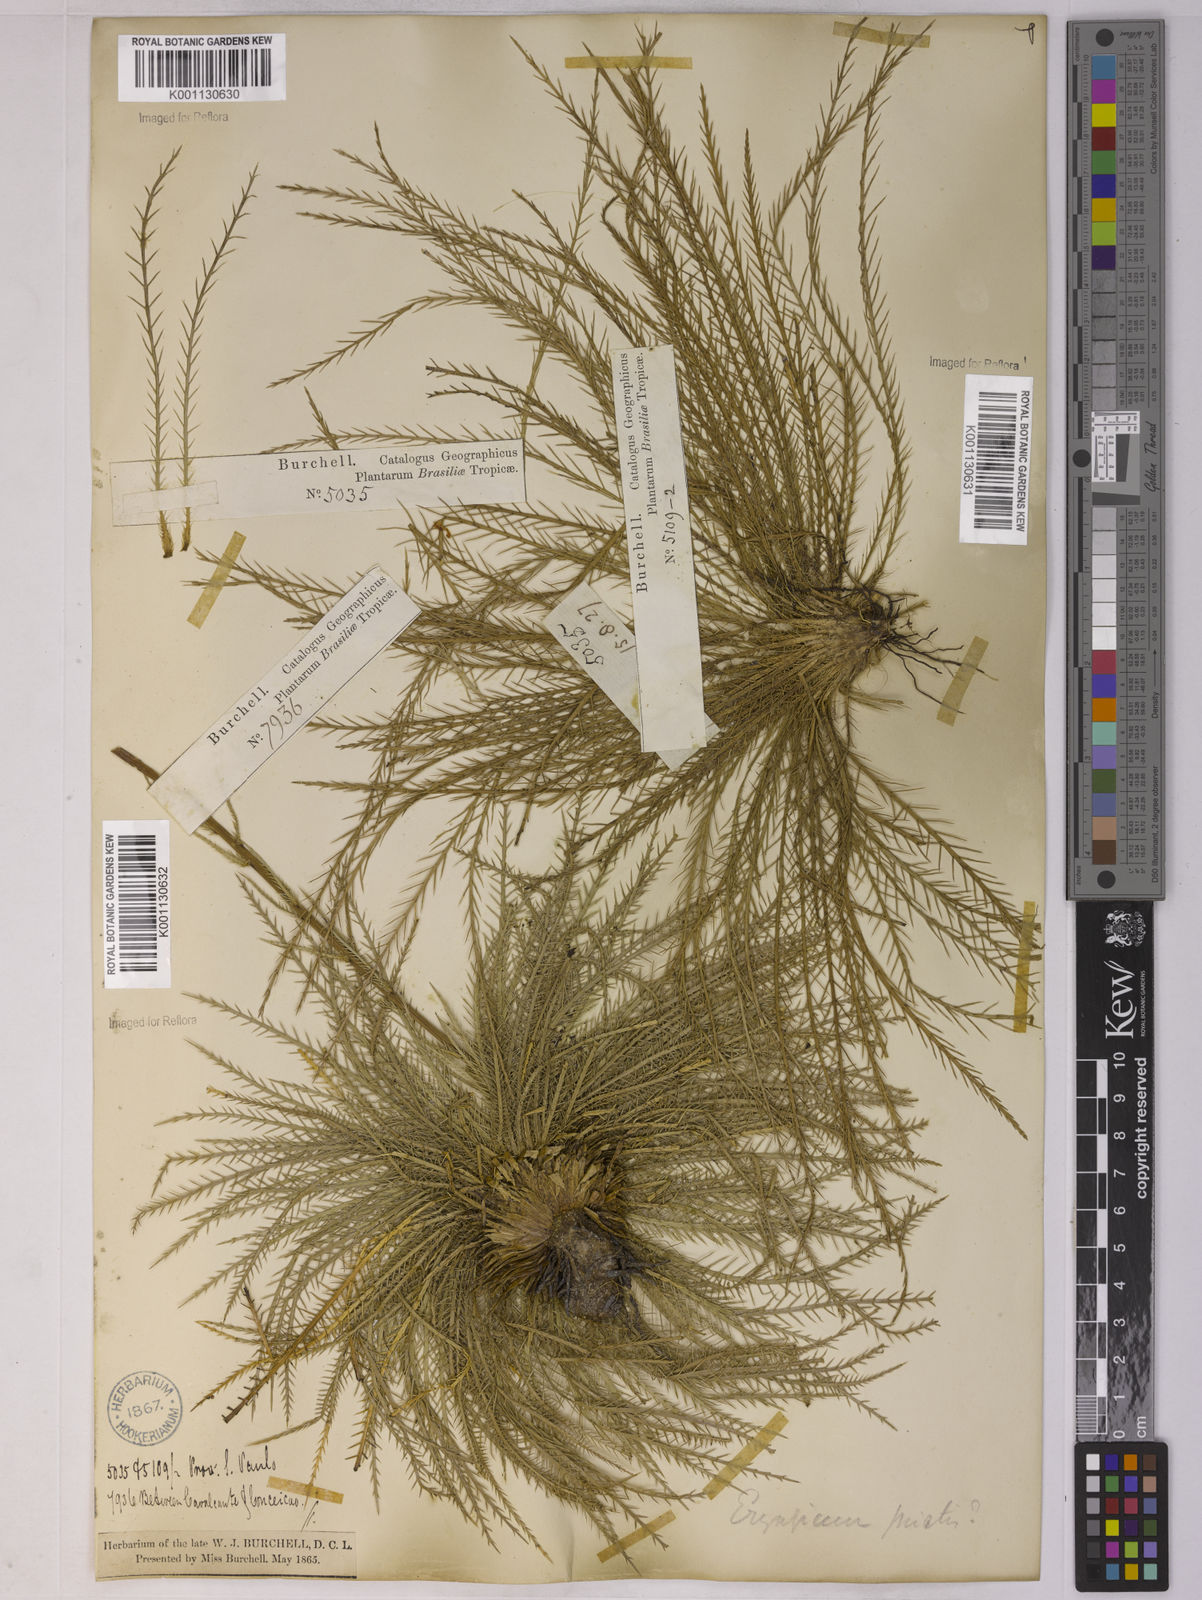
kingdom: Plantae
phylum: Tracheophyta
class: Magnoliopsida
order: Apiales
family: Apiaceae
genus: Eryngium
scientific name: Eryngium pristis
